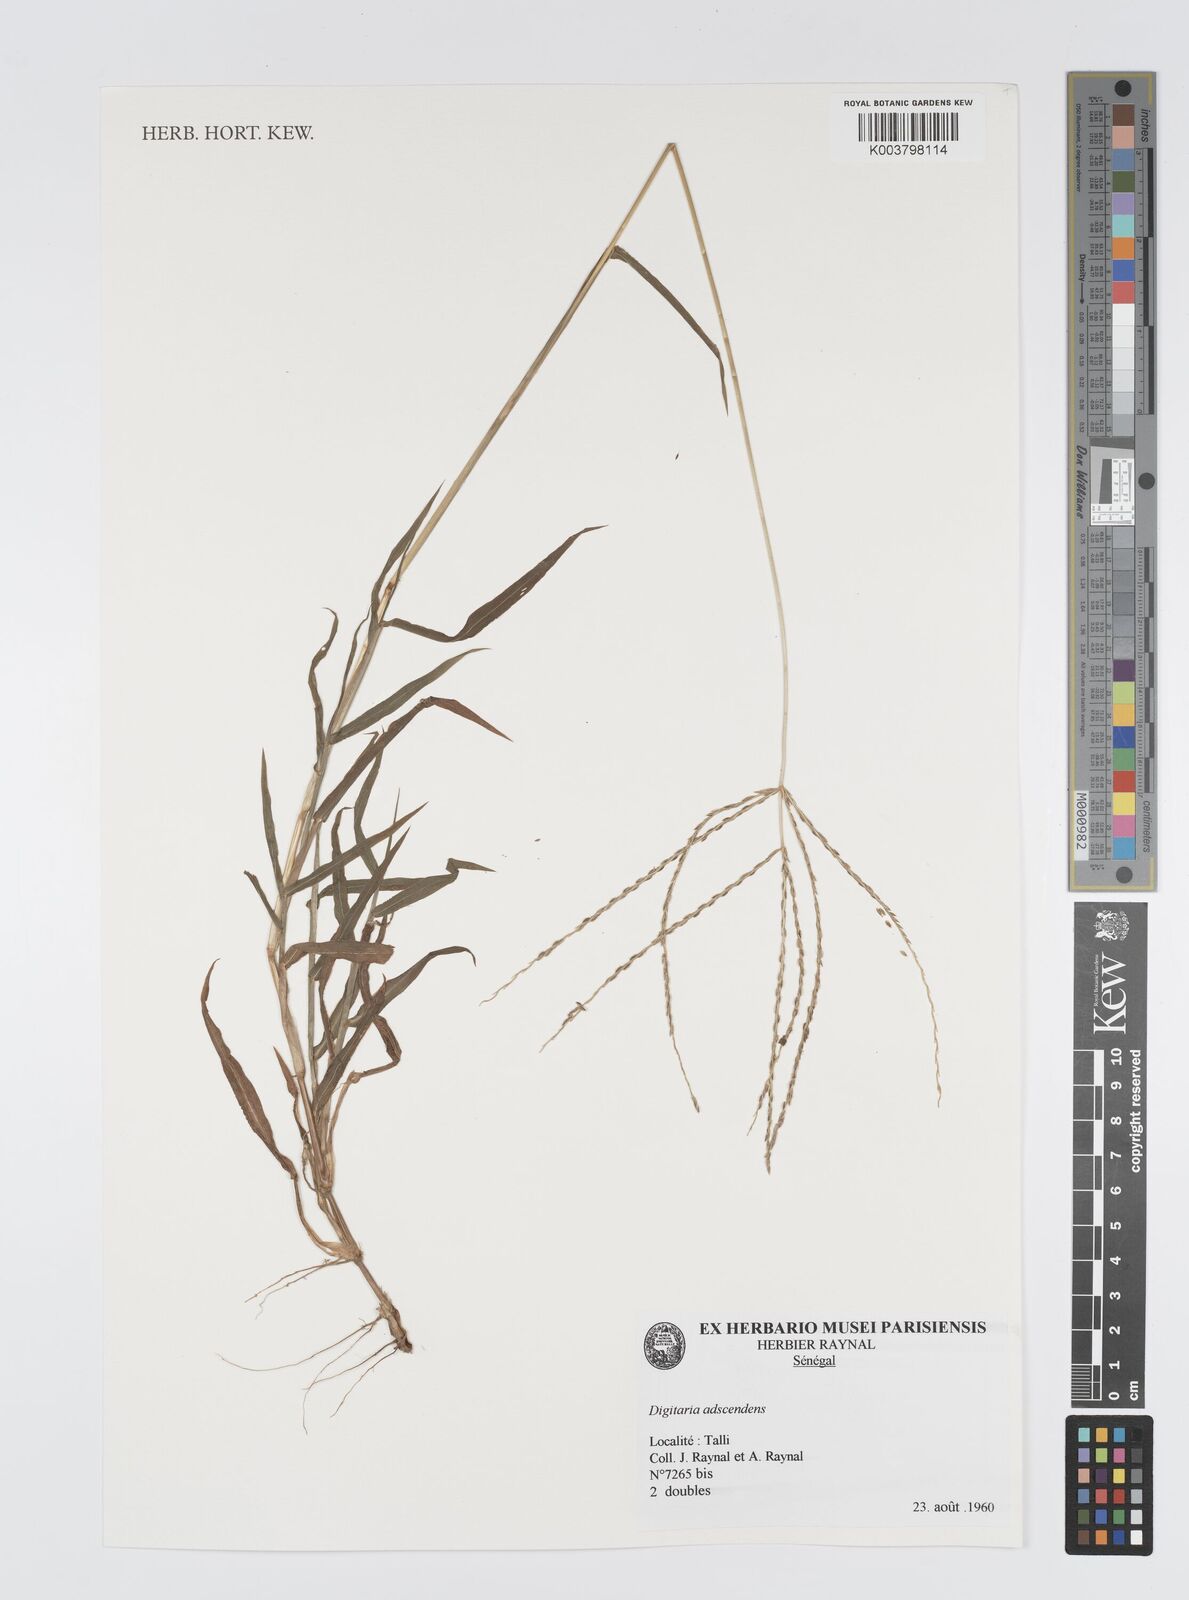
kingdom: Plantae
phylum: Tracheophyta
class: Liliopsida
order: Poales
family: Poaceae
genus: Digitaria
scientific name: Digitaria
